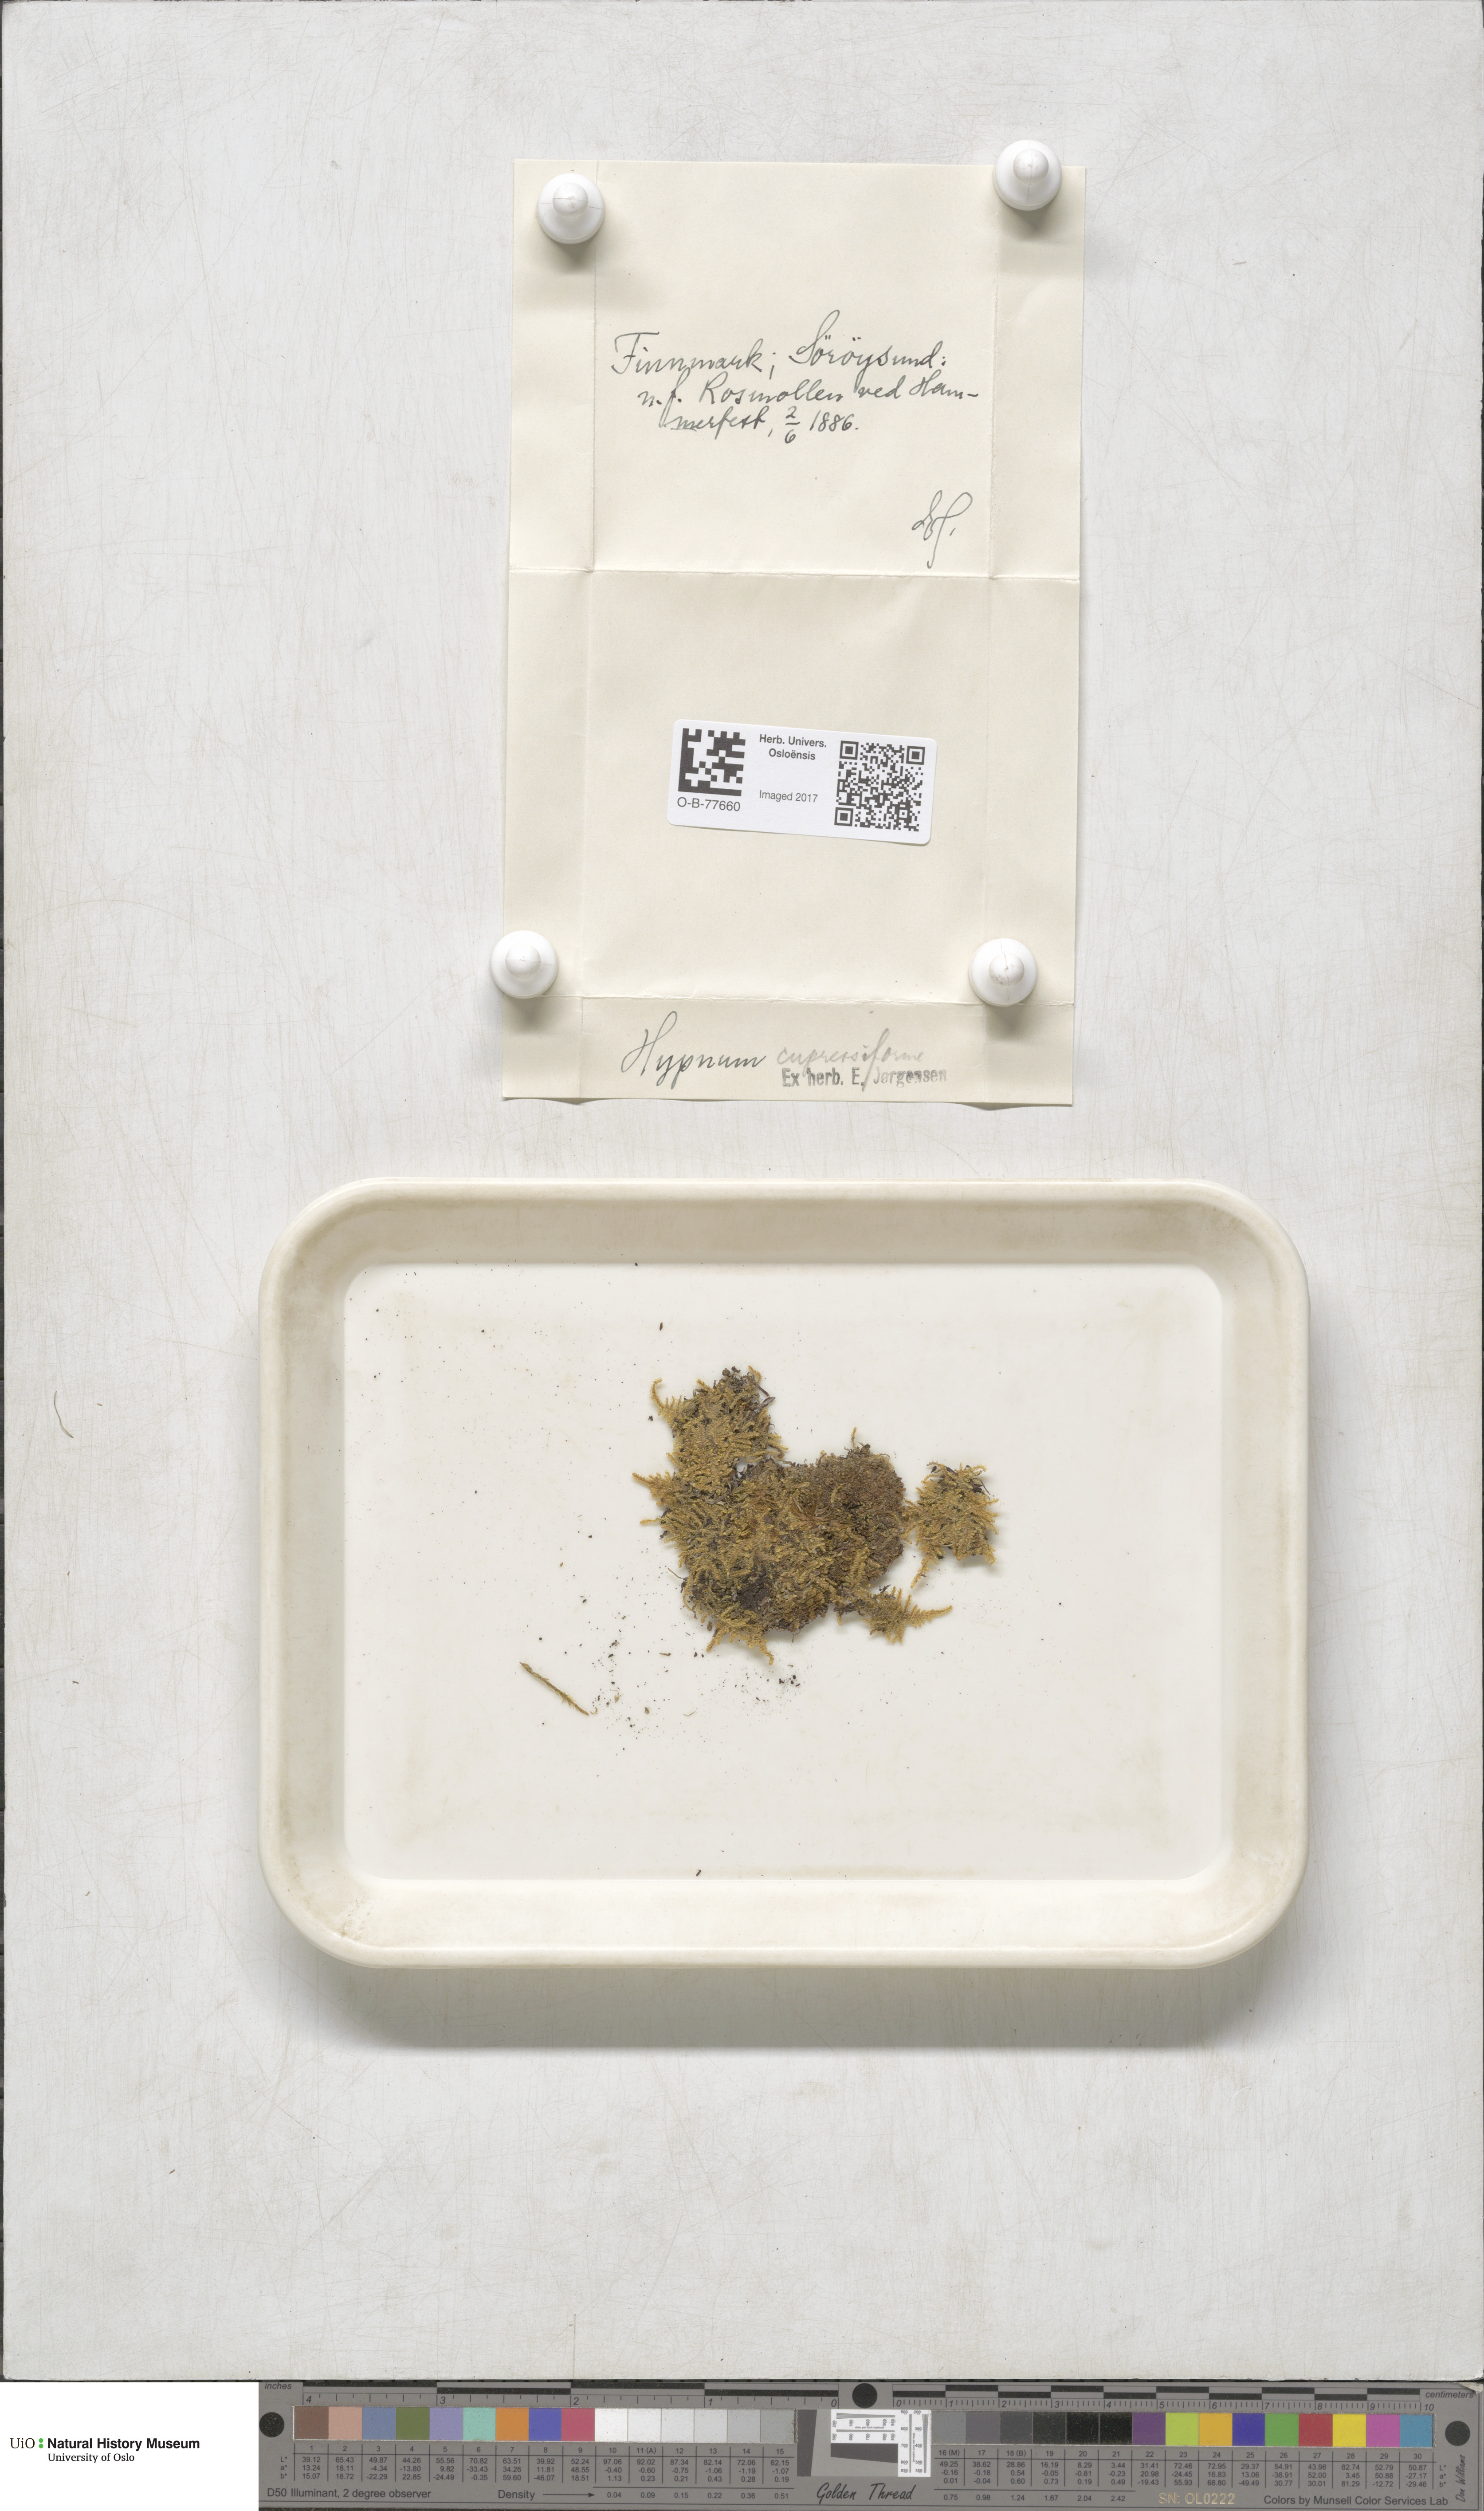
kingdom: Plantae
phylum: Bryophyta
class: Bryopsida
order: Hypnales
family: Hypnaceae
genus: Hypnum
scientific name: Hypnum cupressiforme
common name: Cypress-leaved plait-moss
